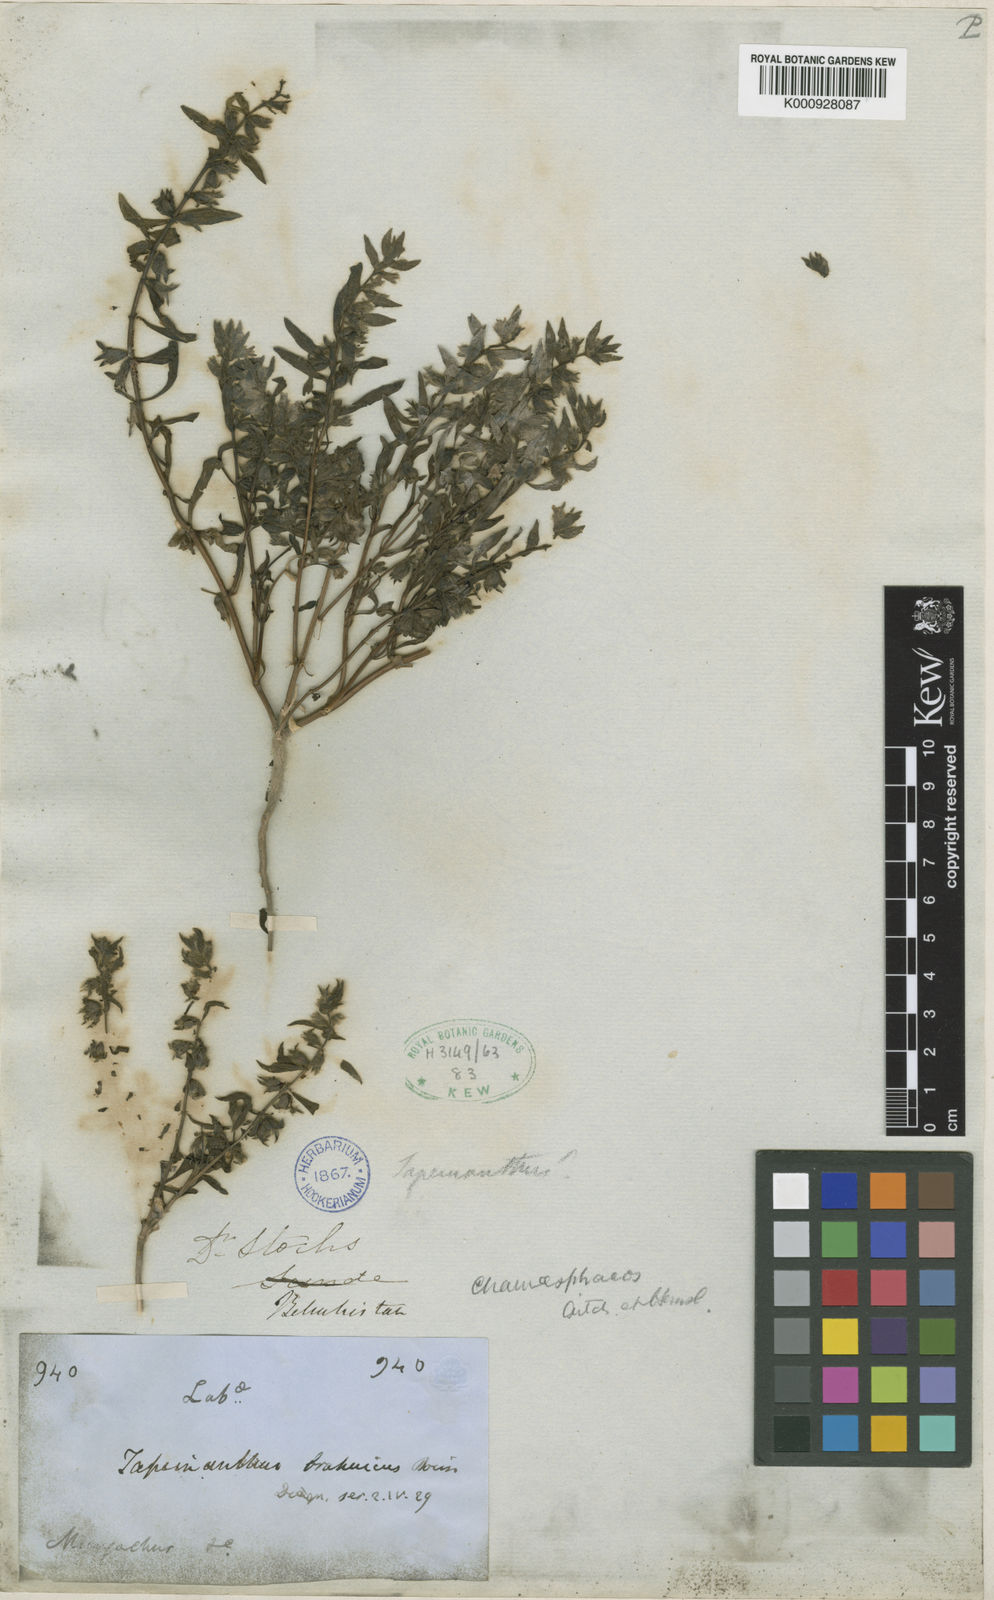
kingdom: Plantae
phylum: Tracheophyta
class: Magnoliopsida
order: Lamiales
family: Lamiaceae
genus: Thuspeinanta
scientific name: Thuspeinanta brahuica
